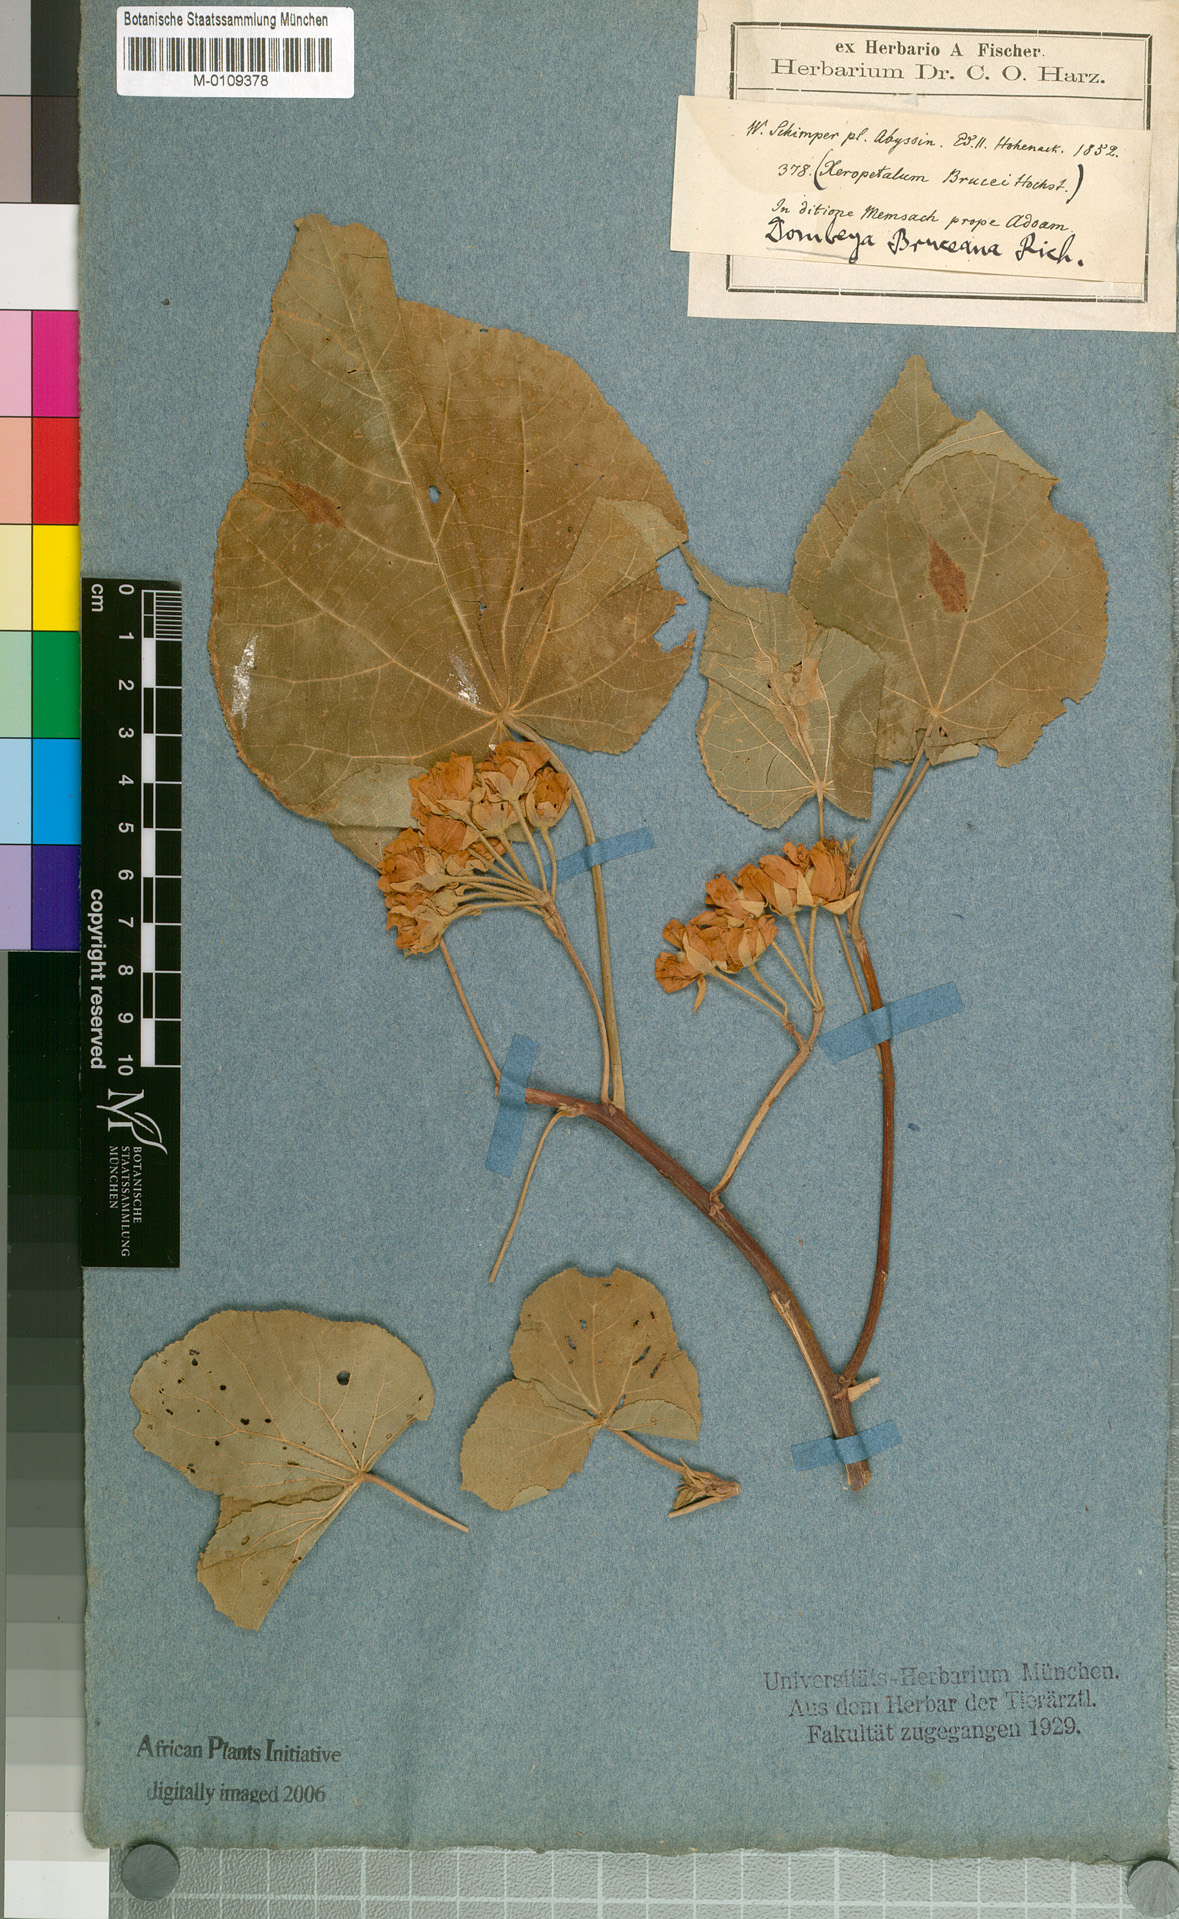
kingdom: Plantae
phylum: Tracheophyta
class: Magnoliopsida
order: Malvales
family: Malvaceae
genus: Dombeya
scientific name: Dombeya torrida
